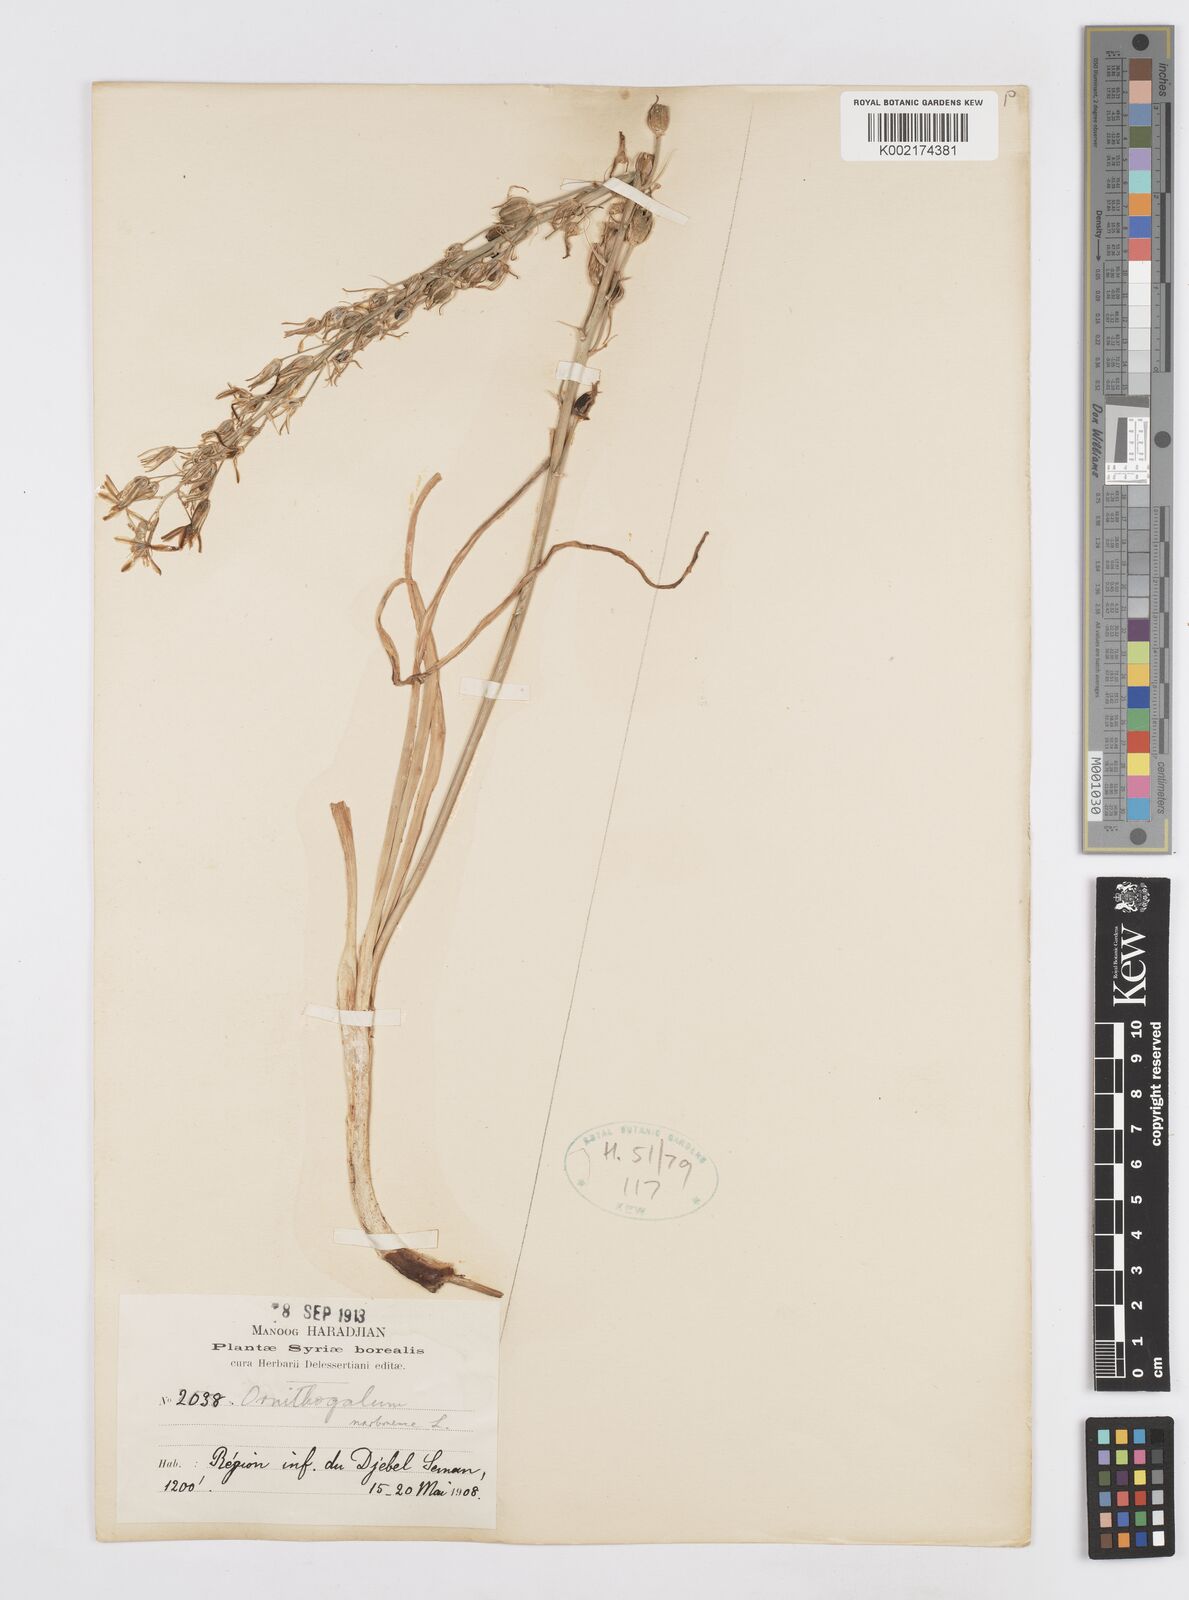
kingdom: Plantae
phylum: Tracheophyta
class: Liliopsida
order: Asparagales
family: Asparagaceae
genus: Ornithogalum
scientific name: Ornithogalum narbonense
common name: Bath-asparagus
